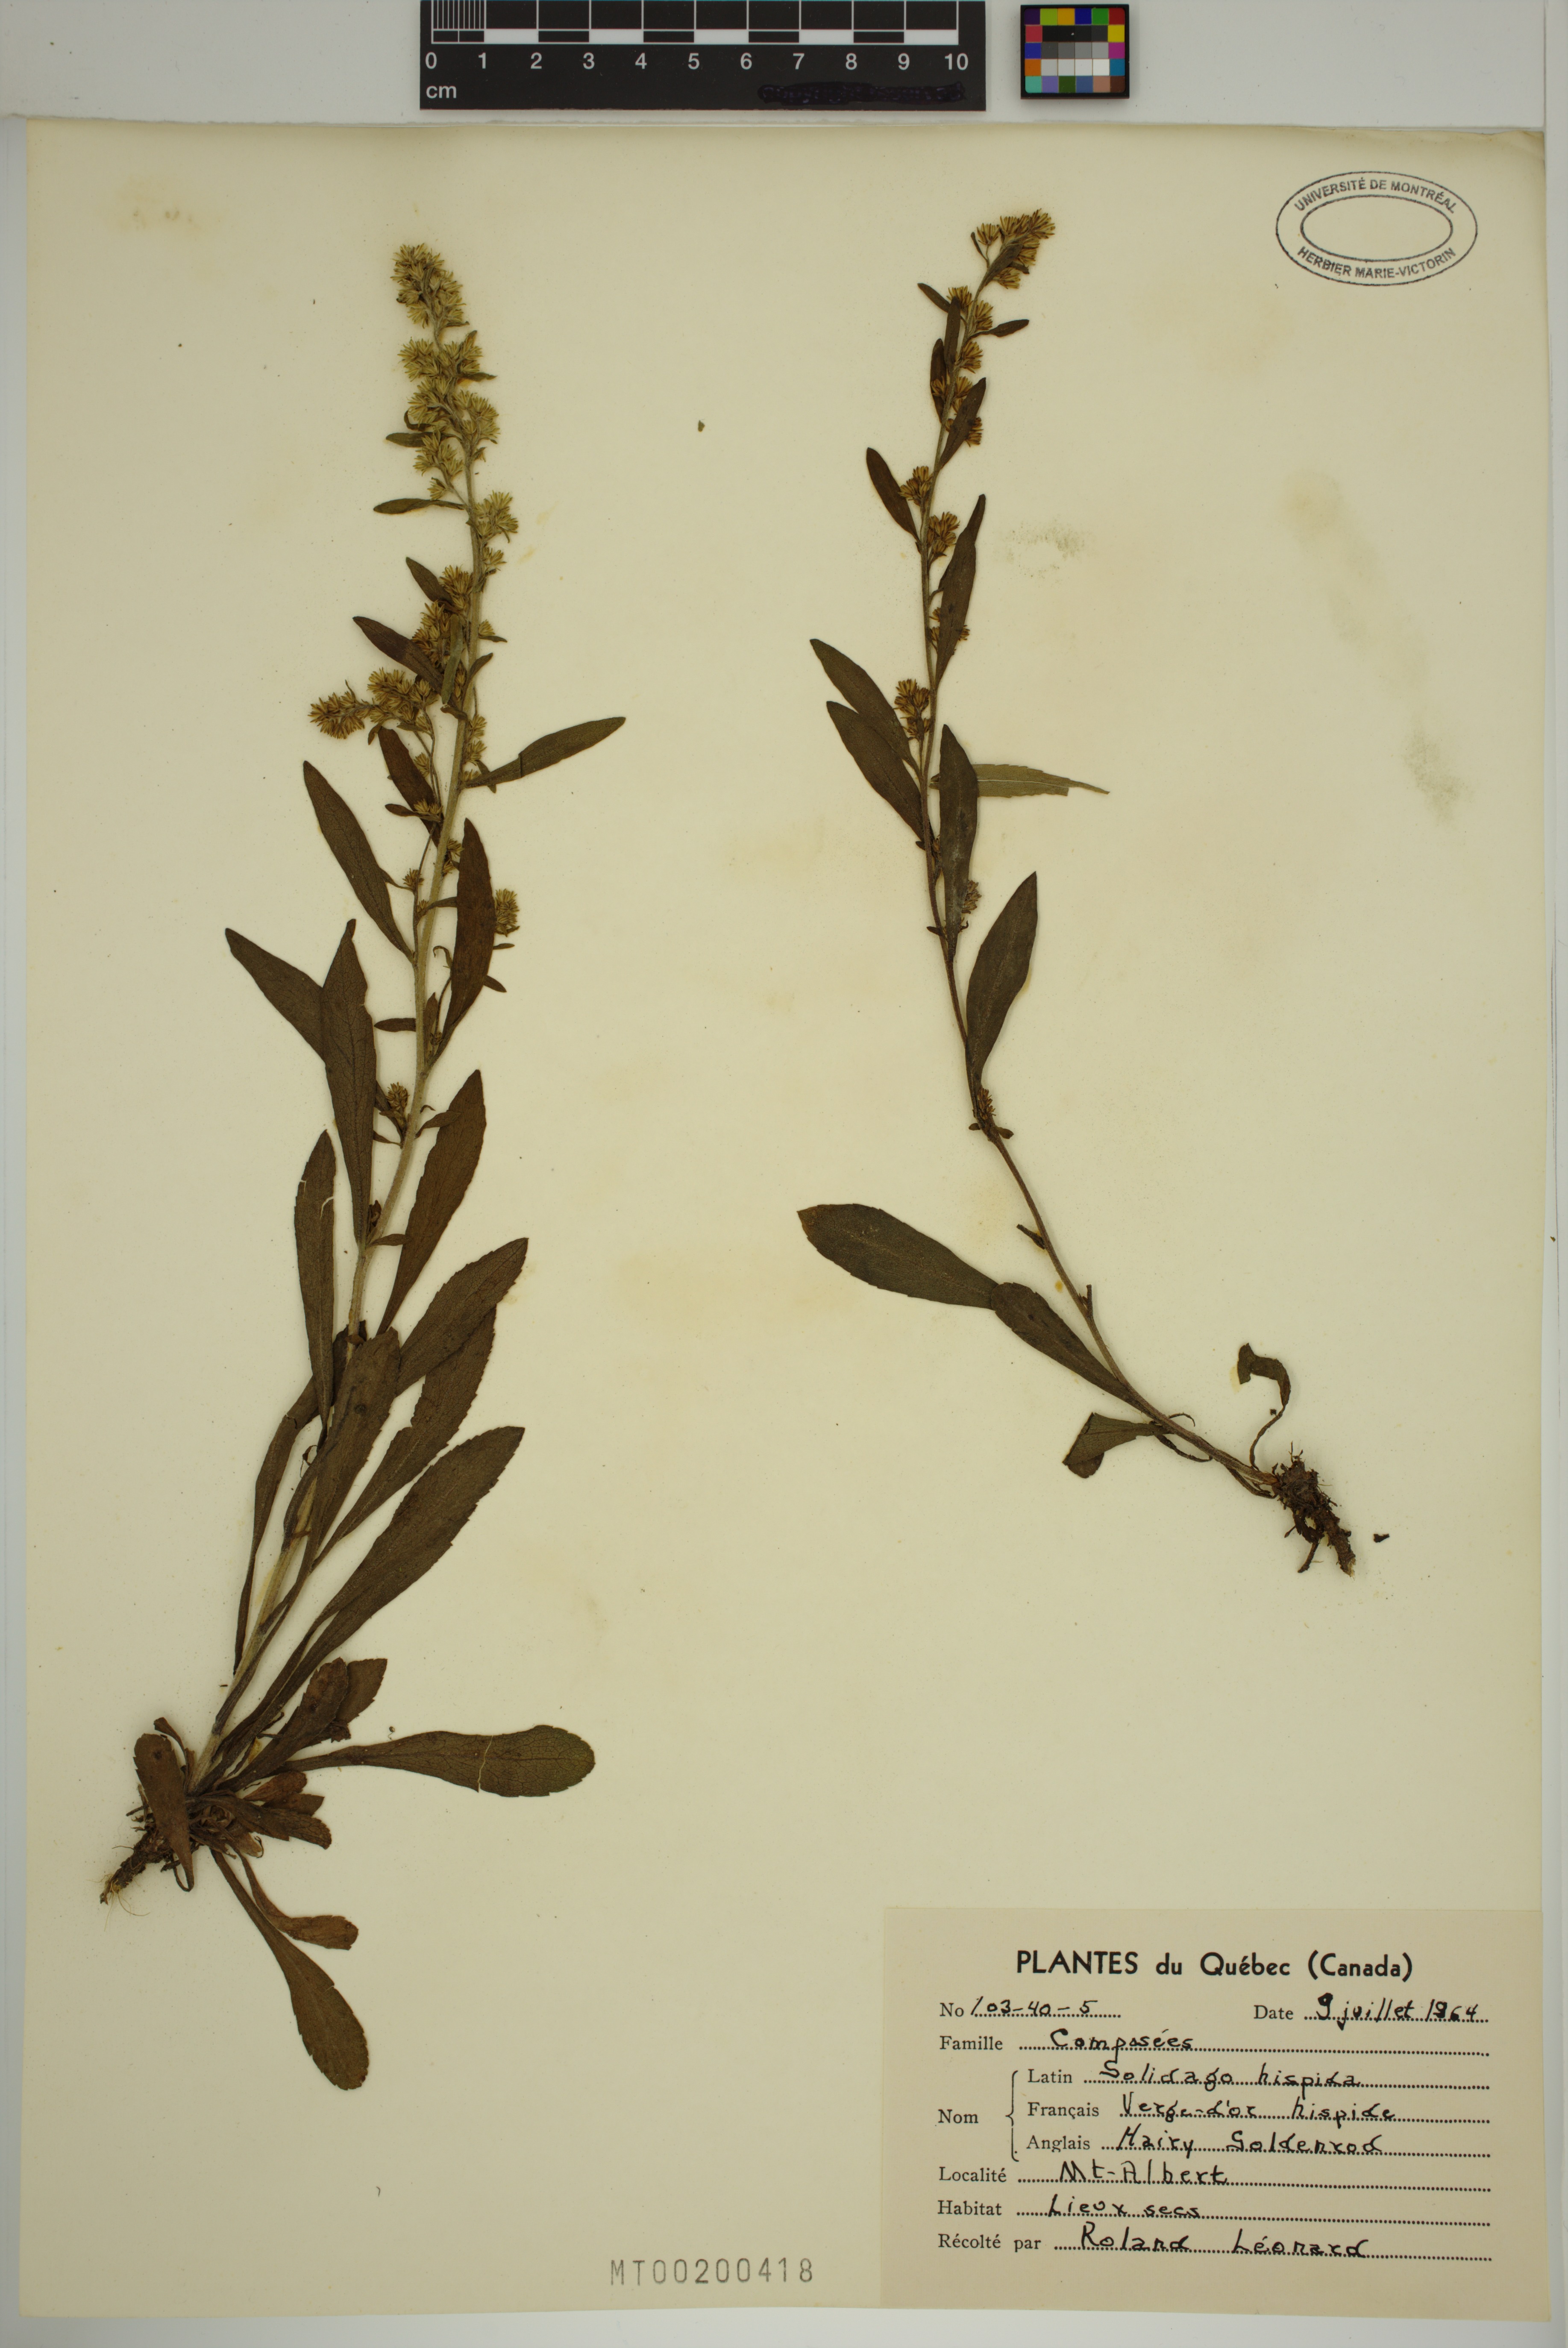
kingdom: Plantae
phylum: Tracheophyta
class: Magnoliopsida
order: Asterales
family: Asteraceae
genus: Solidago
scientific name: Solidago hispida
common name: Hairy goldenrod
